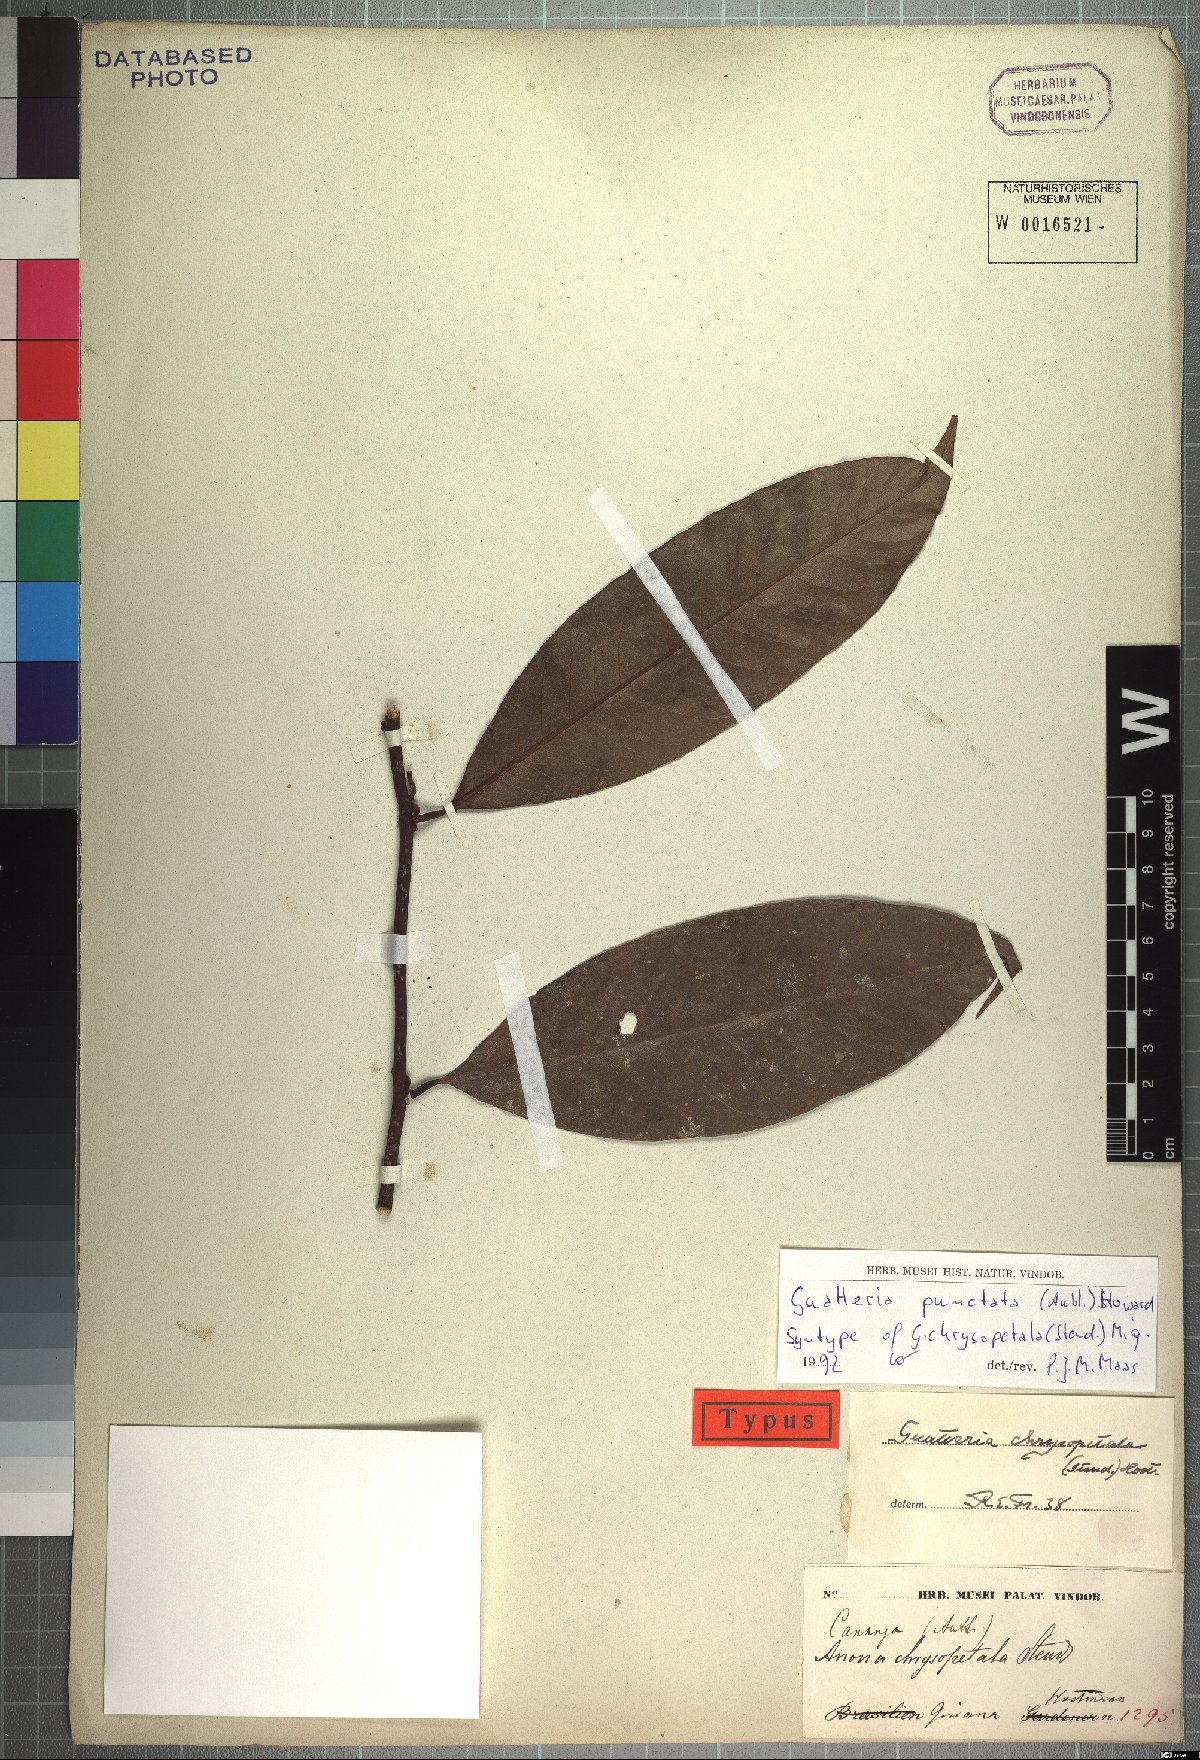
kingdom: Plantae
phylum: Tracheophyta
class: Magnoliopsida
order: Magnoliales
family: Annonaceae
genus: Guatteria
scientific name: Guatteria punctata
